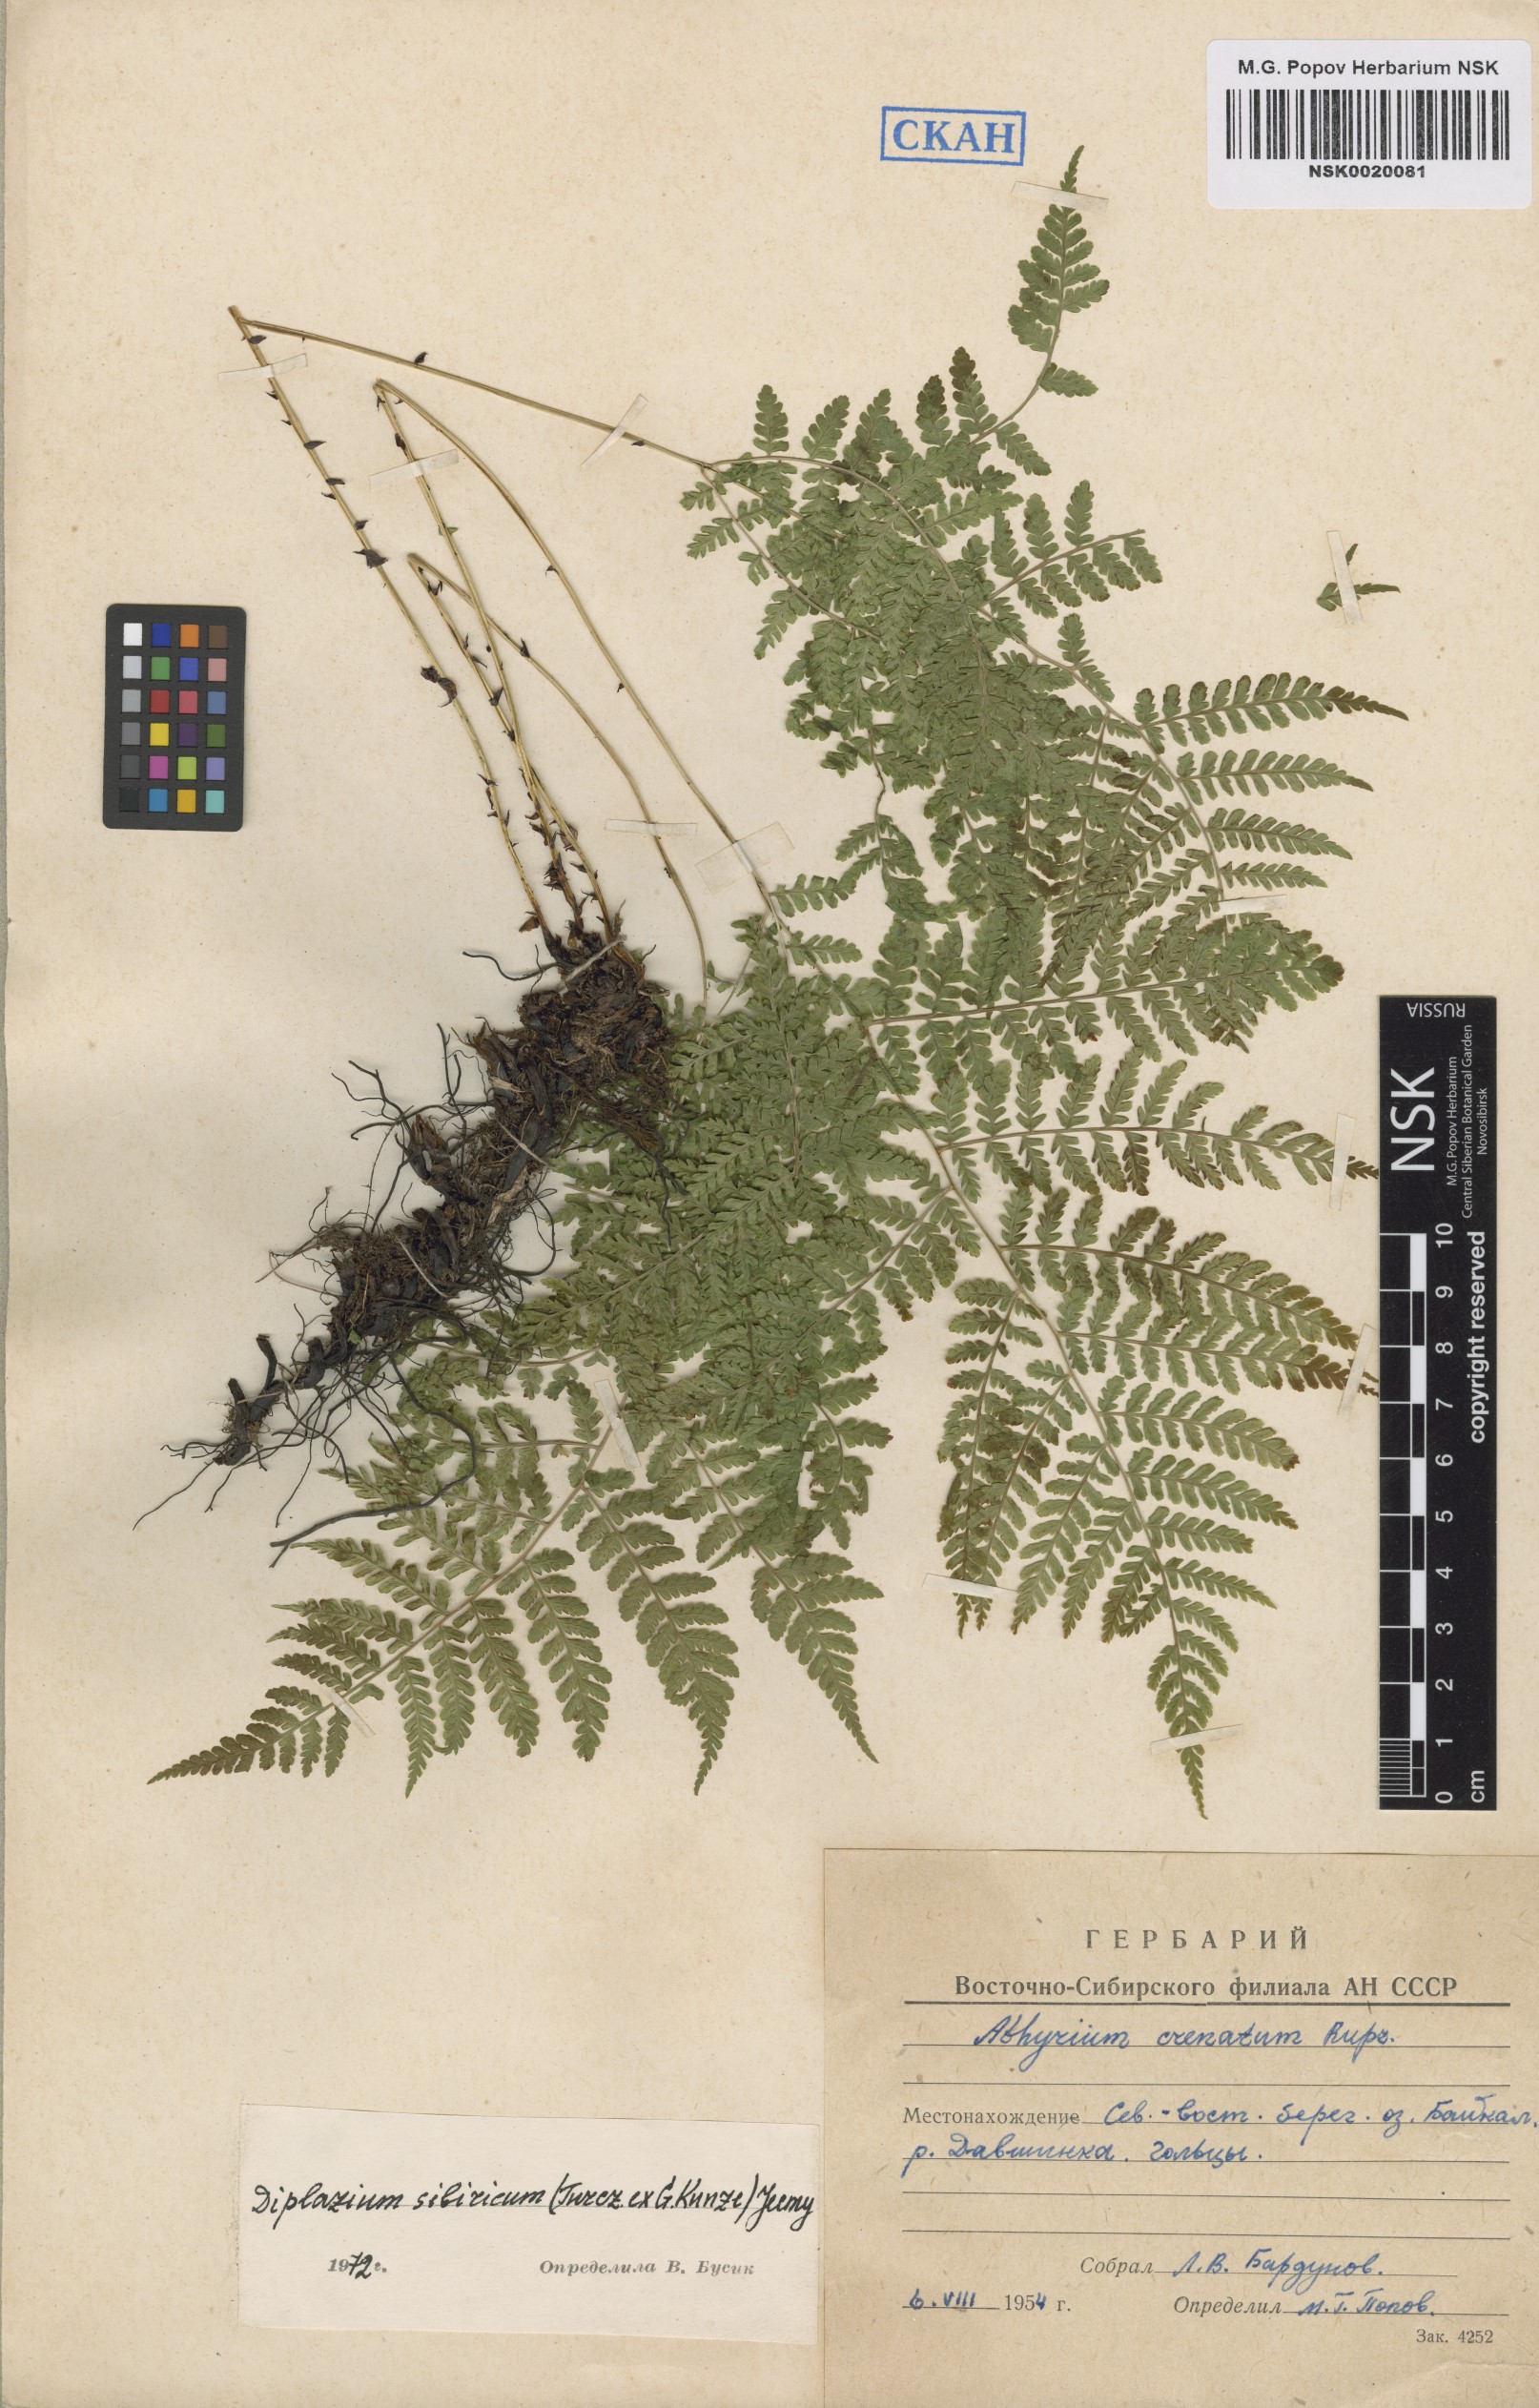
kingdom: Plantae
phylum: Tracheophyta
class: Polypodiopsida
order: Polypodiales
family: Athyriaceae
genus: Diplazium
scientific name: Diplazium sibiricum
